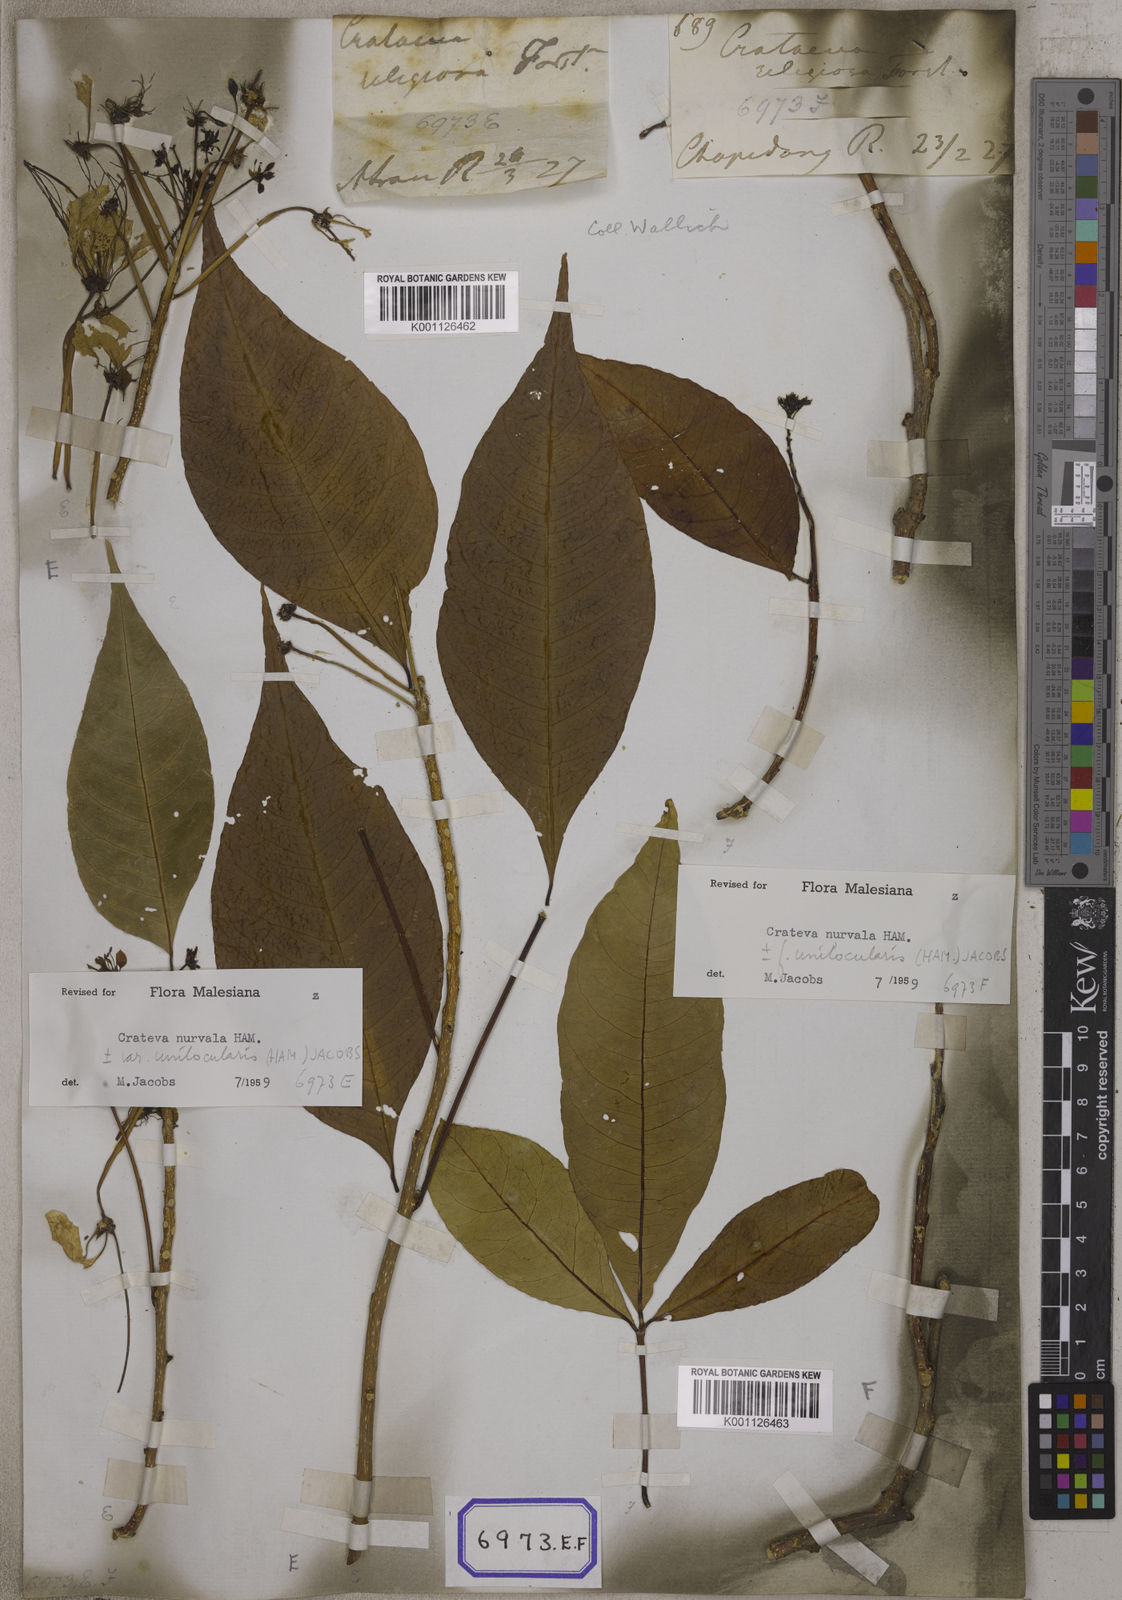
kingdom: Plantae
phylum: Tracheophyta
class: Magnoliopsida
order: Brassicales
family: Capparaceae
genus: Crateva
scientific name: Crateva magna
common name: Three-leaf-caper
